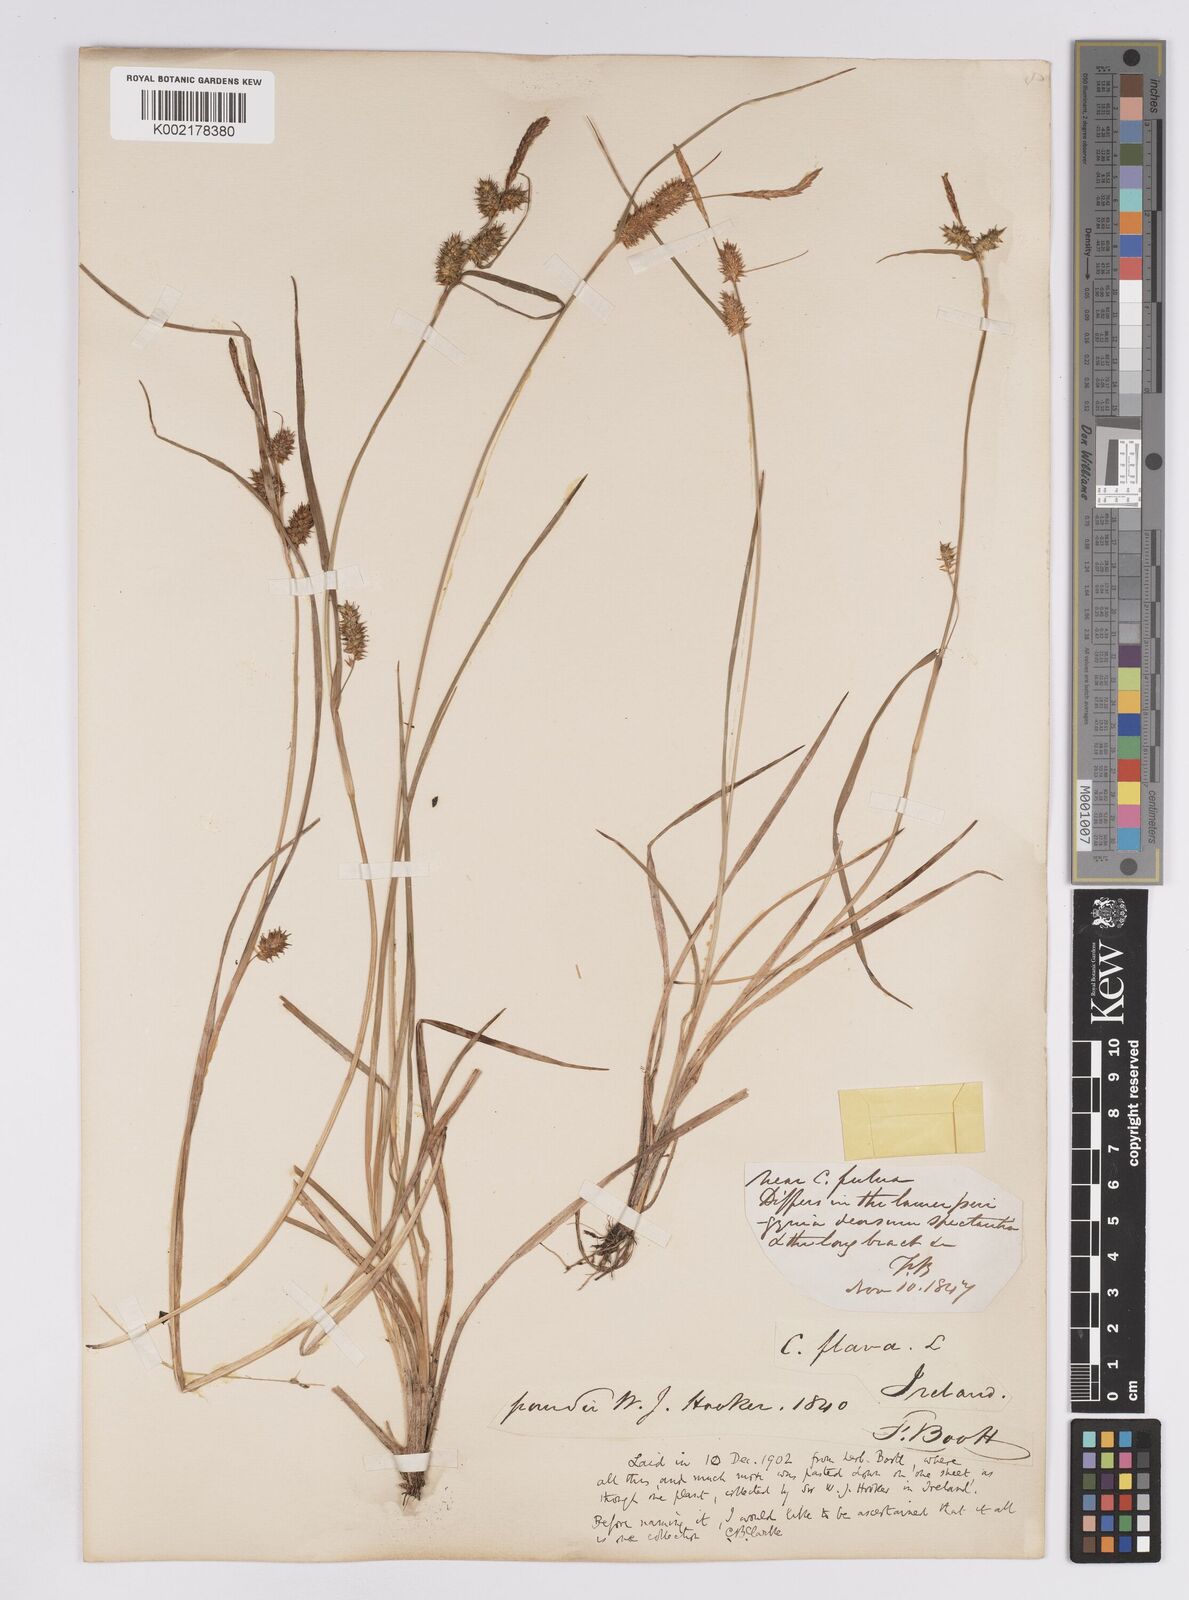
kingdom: Plantae
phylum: Tracheophyta
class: Liliopsida
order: Poales
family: Cyperaceae
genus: Carex
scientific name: Carex demissa
